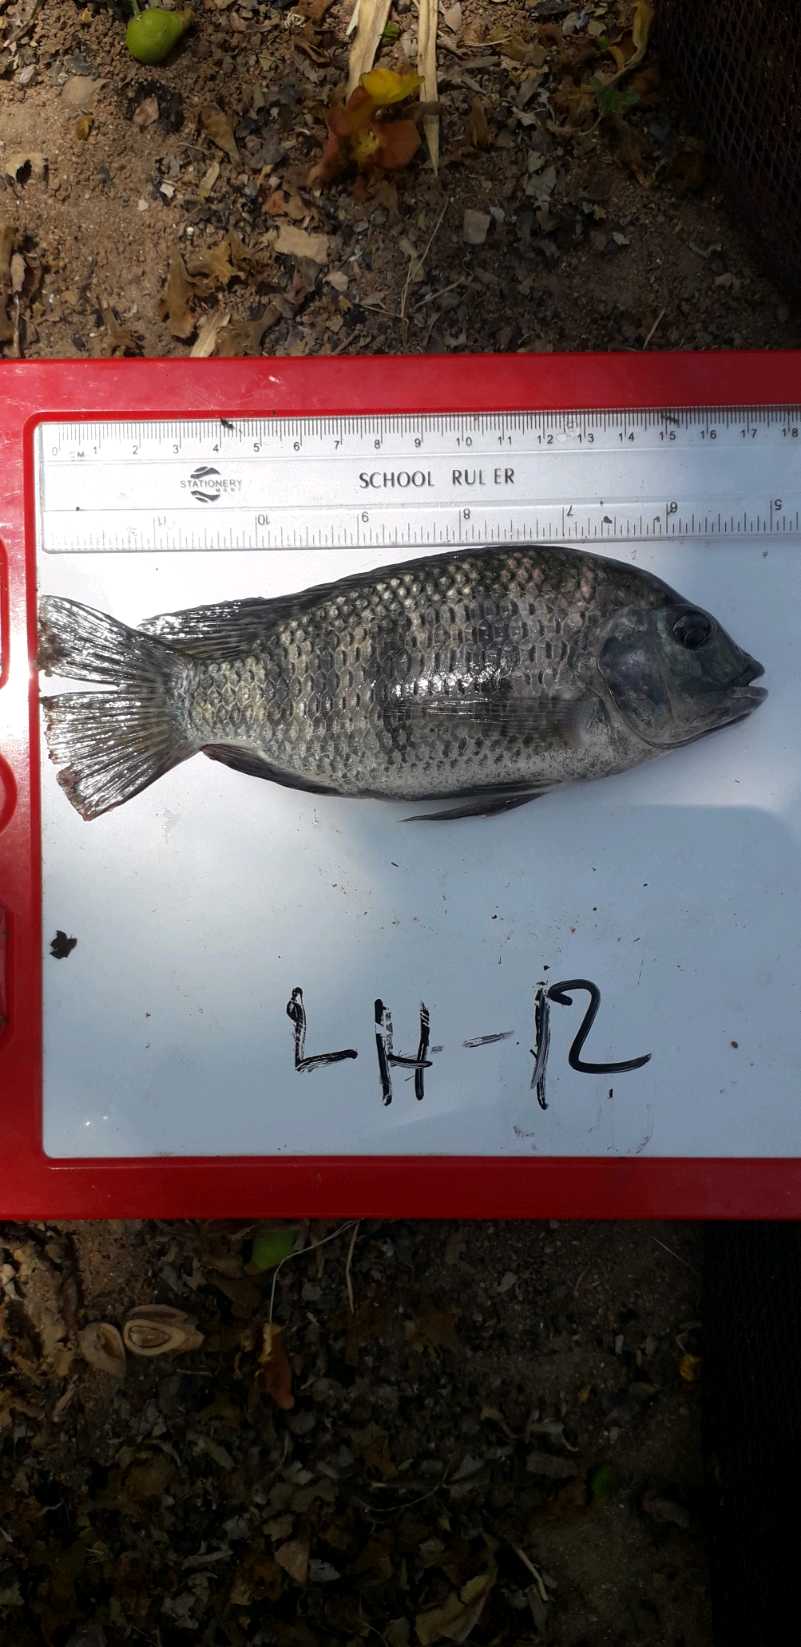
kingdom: Animalia
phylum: Chordata
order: Perciformes
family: Cichlidae
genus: Coptodon
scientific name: Coptodon rendalli
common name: Redbreast tilapia
